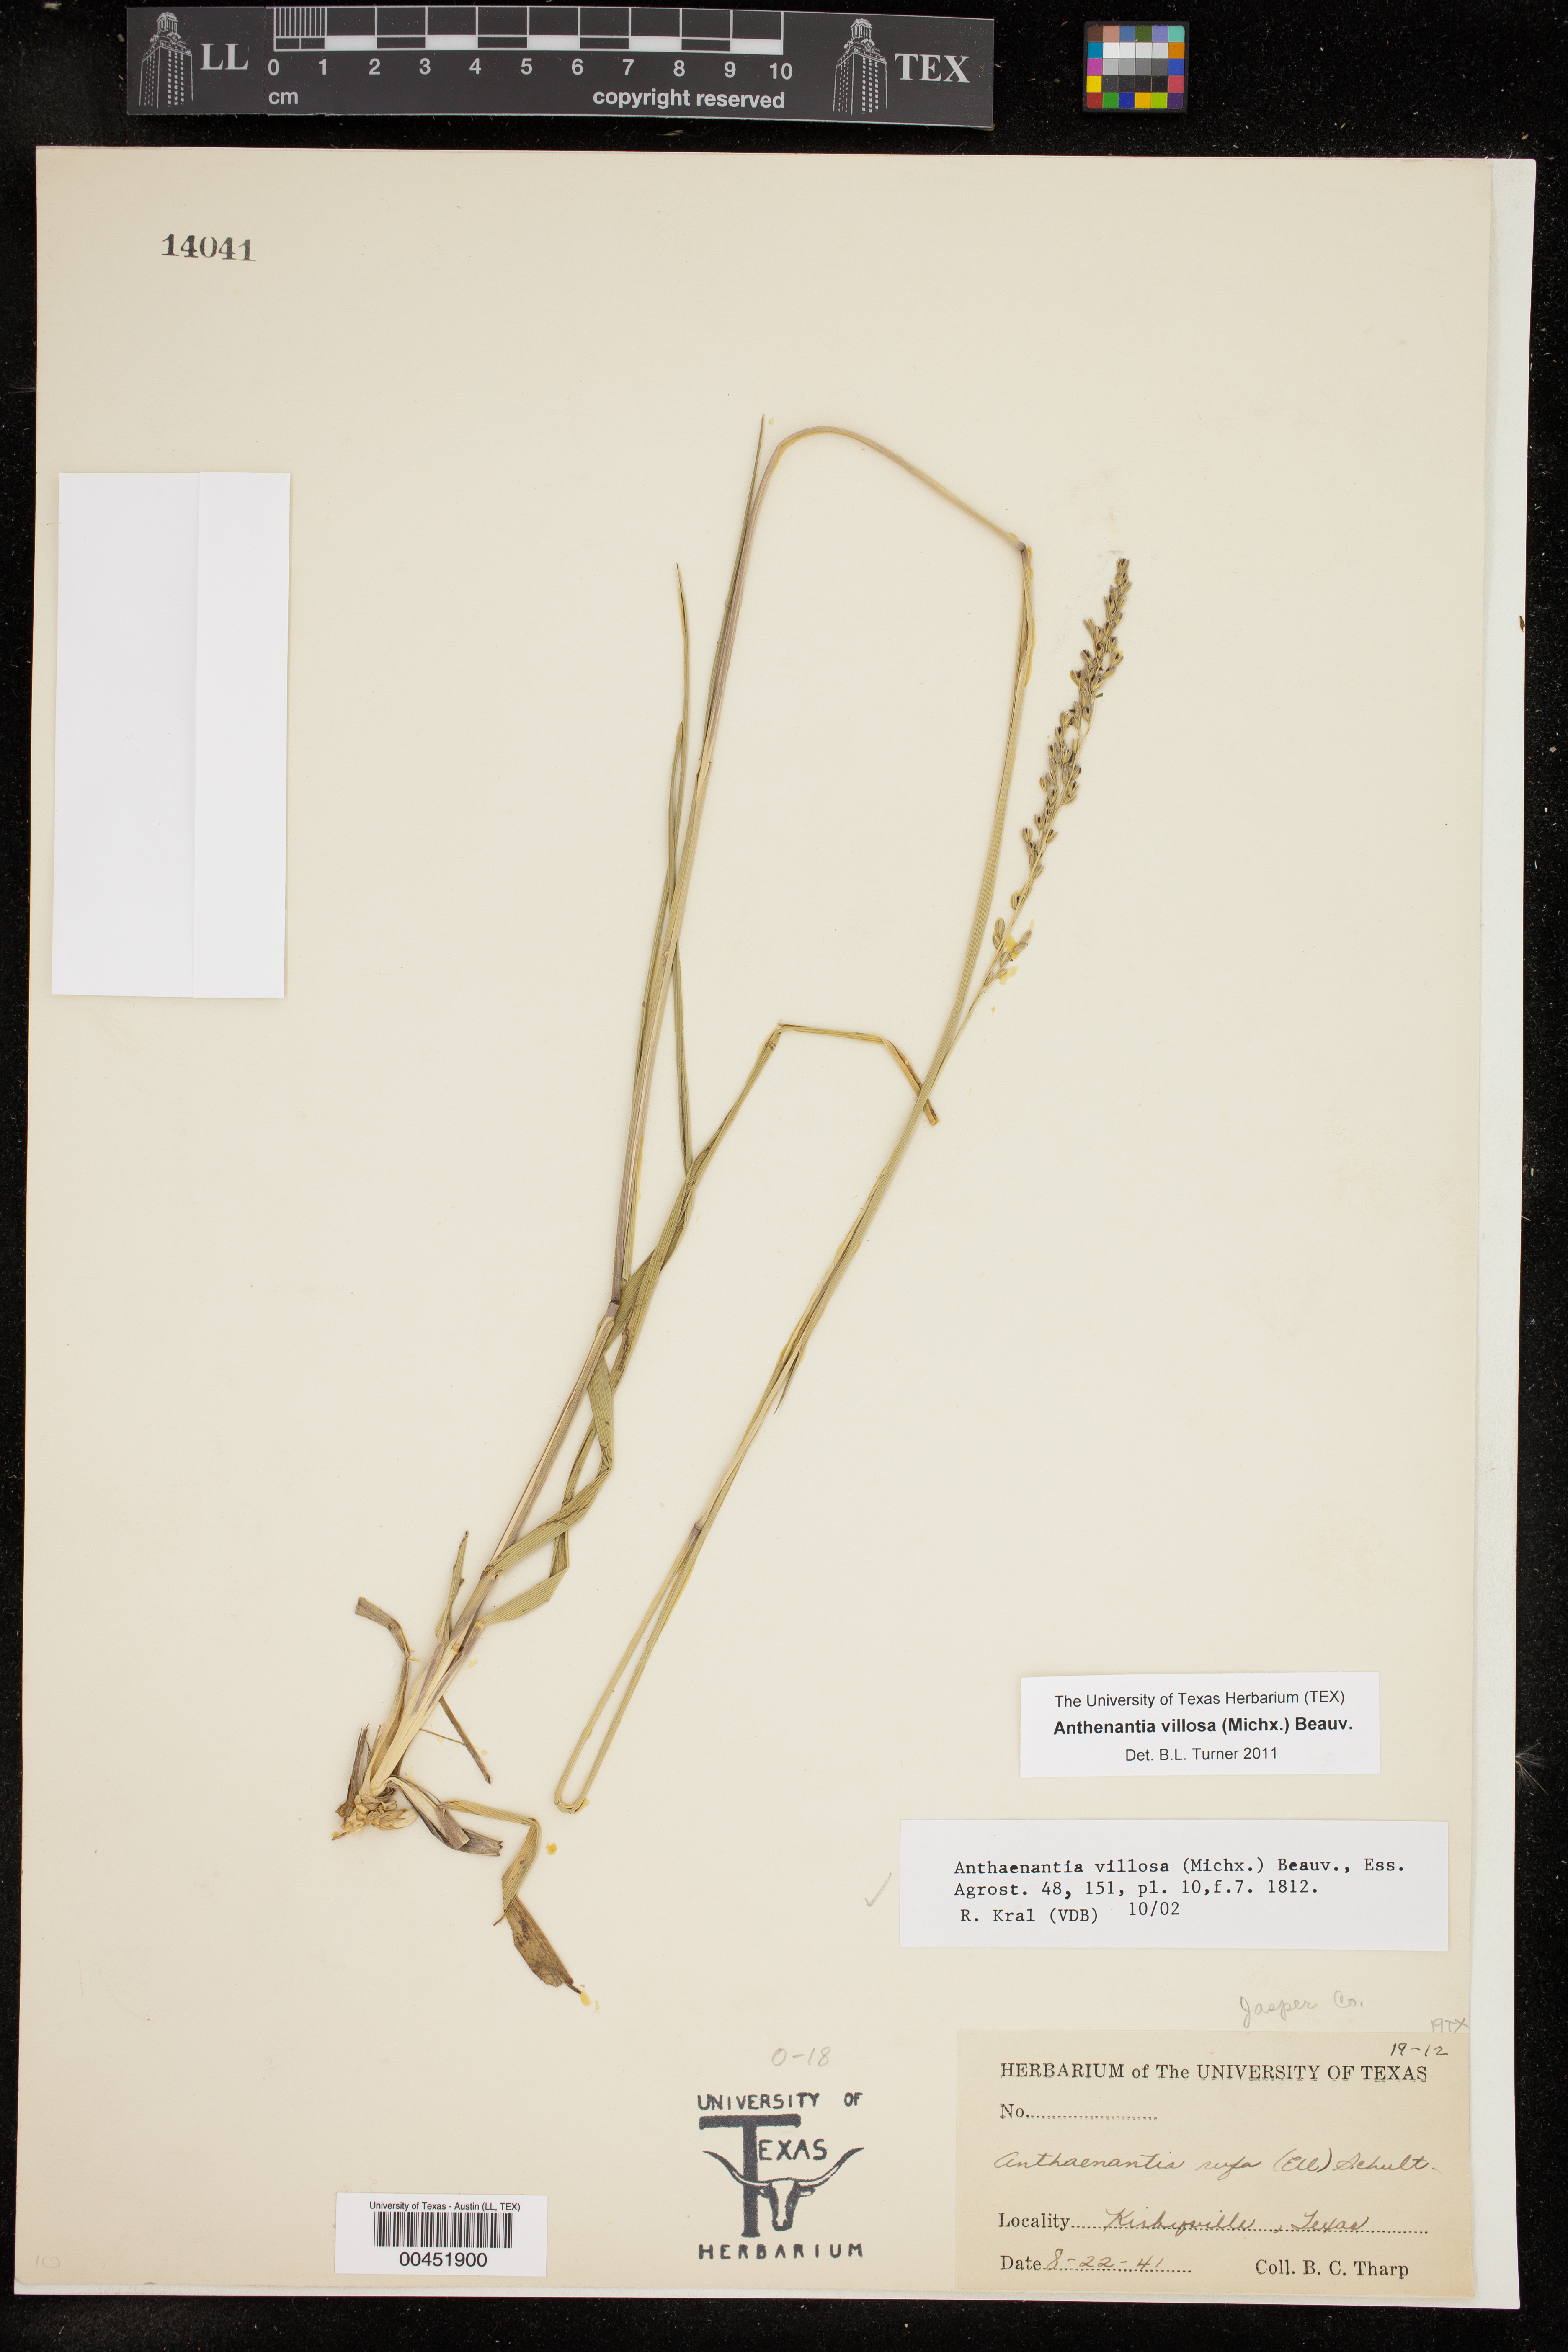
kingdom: Plantae
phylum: Tracheophyta
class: Liliopsida
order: Poales
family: Poaceae
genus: Anthenantia
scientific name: Anthenantia villosa
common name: Green silkyscale
